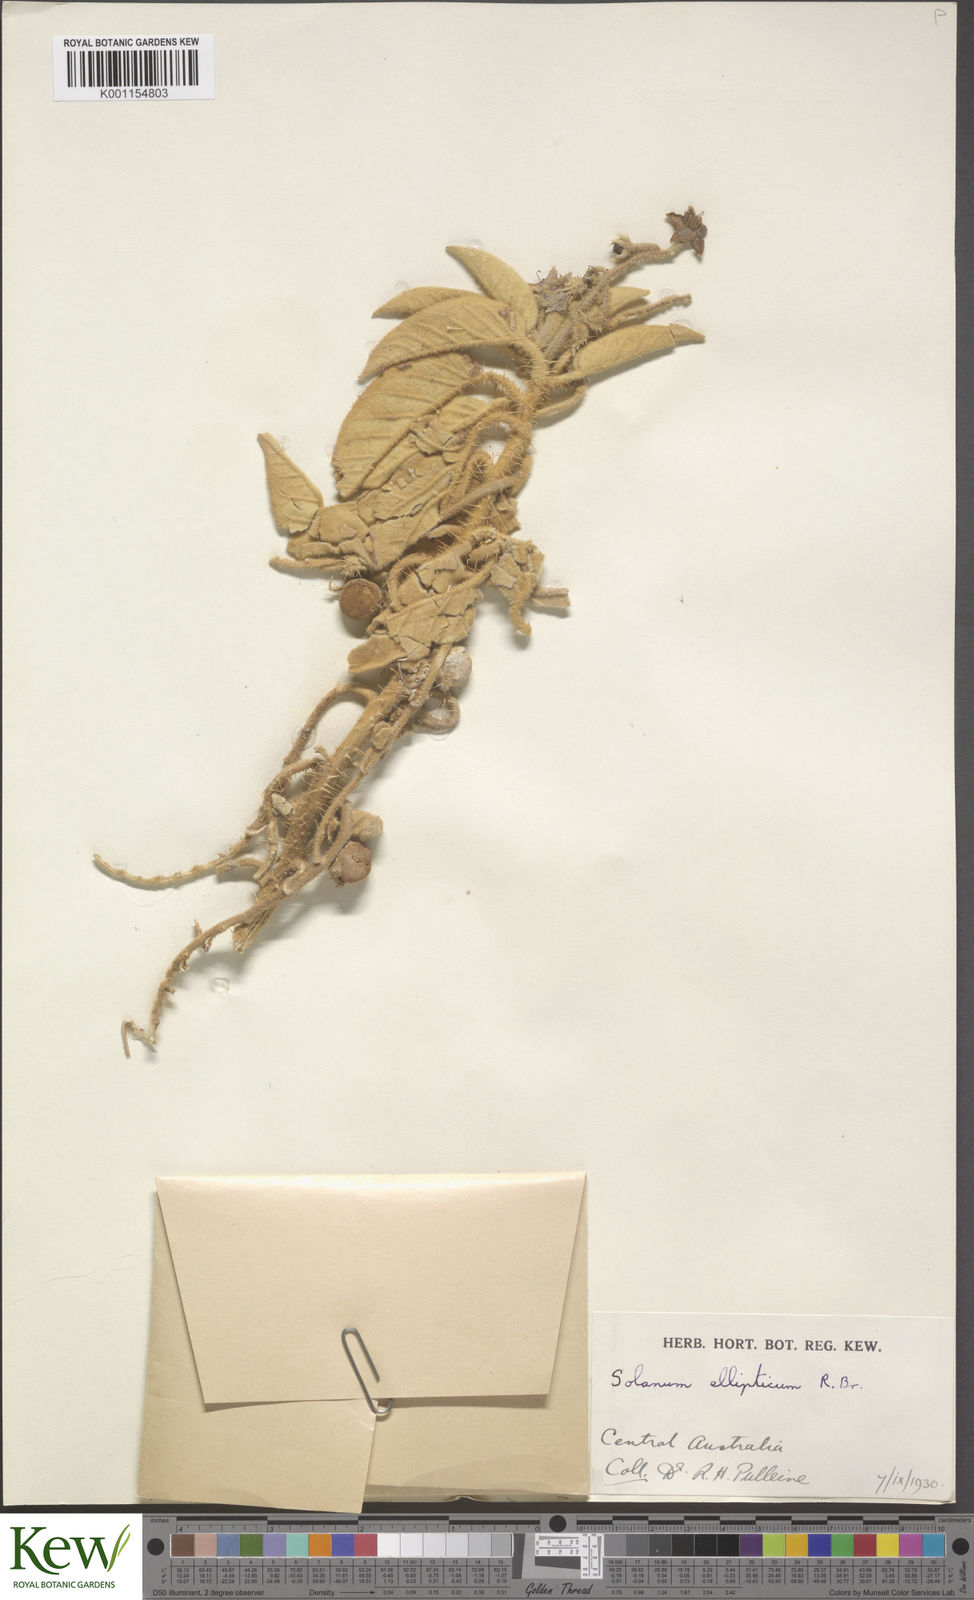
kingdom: Plantae
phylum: Tracheophyta
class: Magnoliopsida
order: Solanales
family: Solanaceae
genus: Solanum
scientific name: Solanum quadriloculatum
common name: Wild tomato
